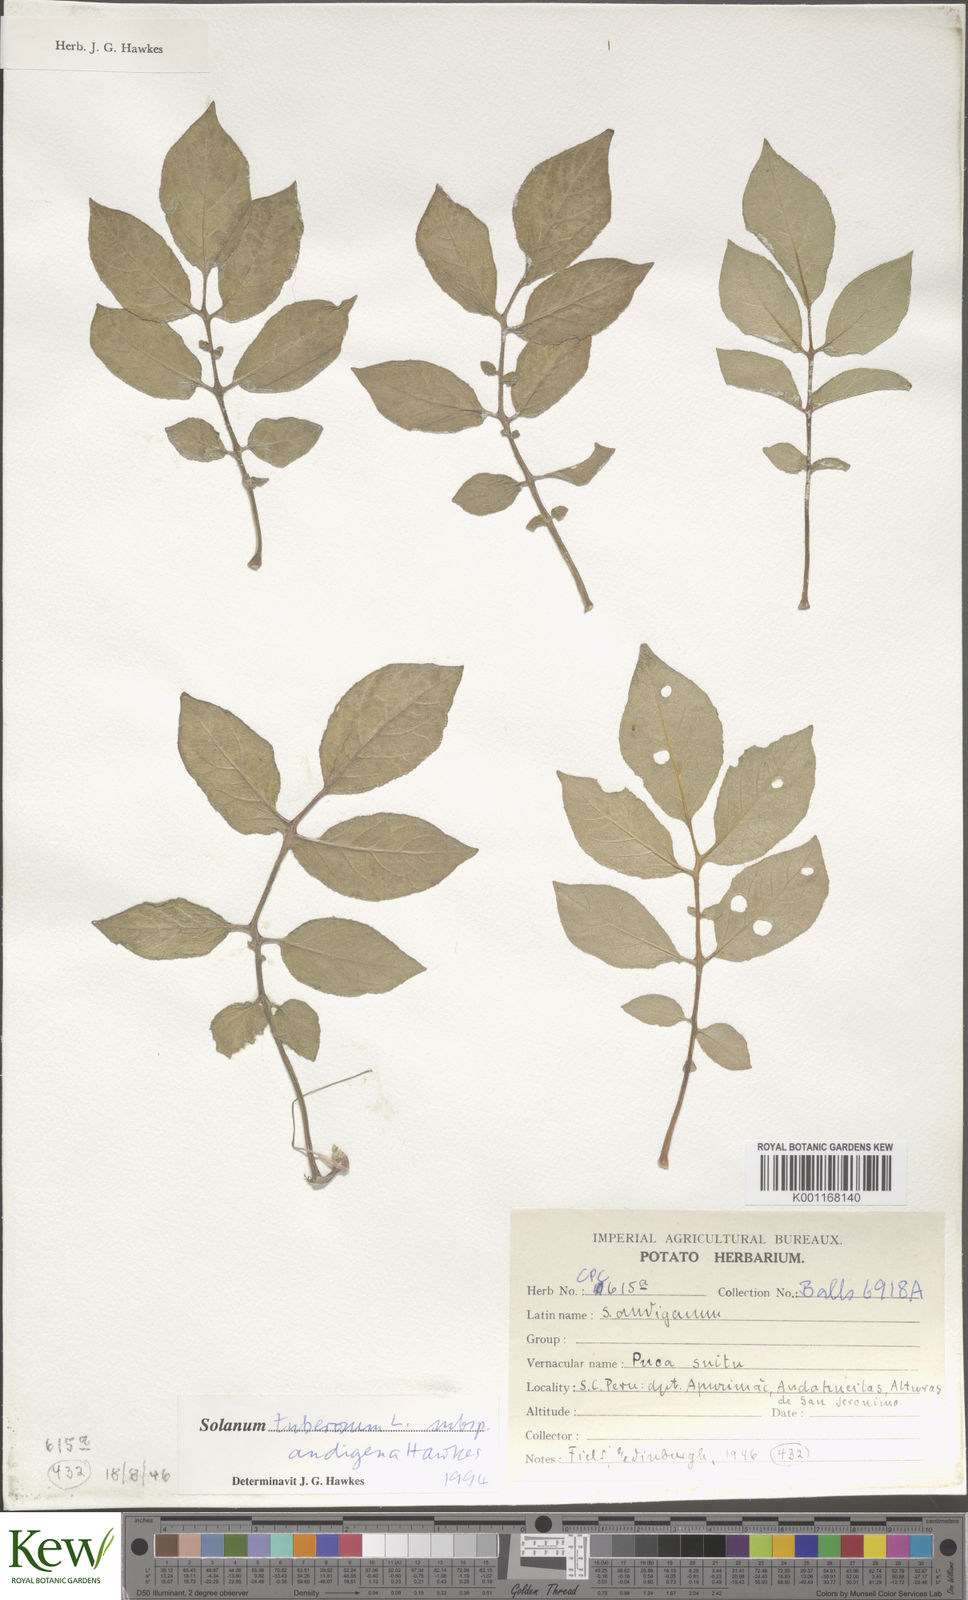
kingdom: Plantae
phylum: Tracheophyta
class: Magnoliopsida
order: Solanales
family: Solanaceae
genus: Solanum
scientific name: Solanum tuberosum
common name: Potato
